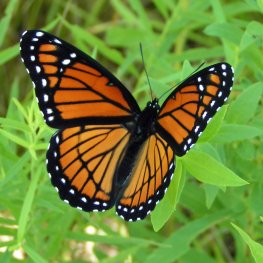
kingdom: Animalia
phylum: Arthropoda
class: Insecta
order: Lepidoptera
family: Nymphalidae
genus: Limenitis
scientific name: Limenitis archippus
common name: Viceroy
